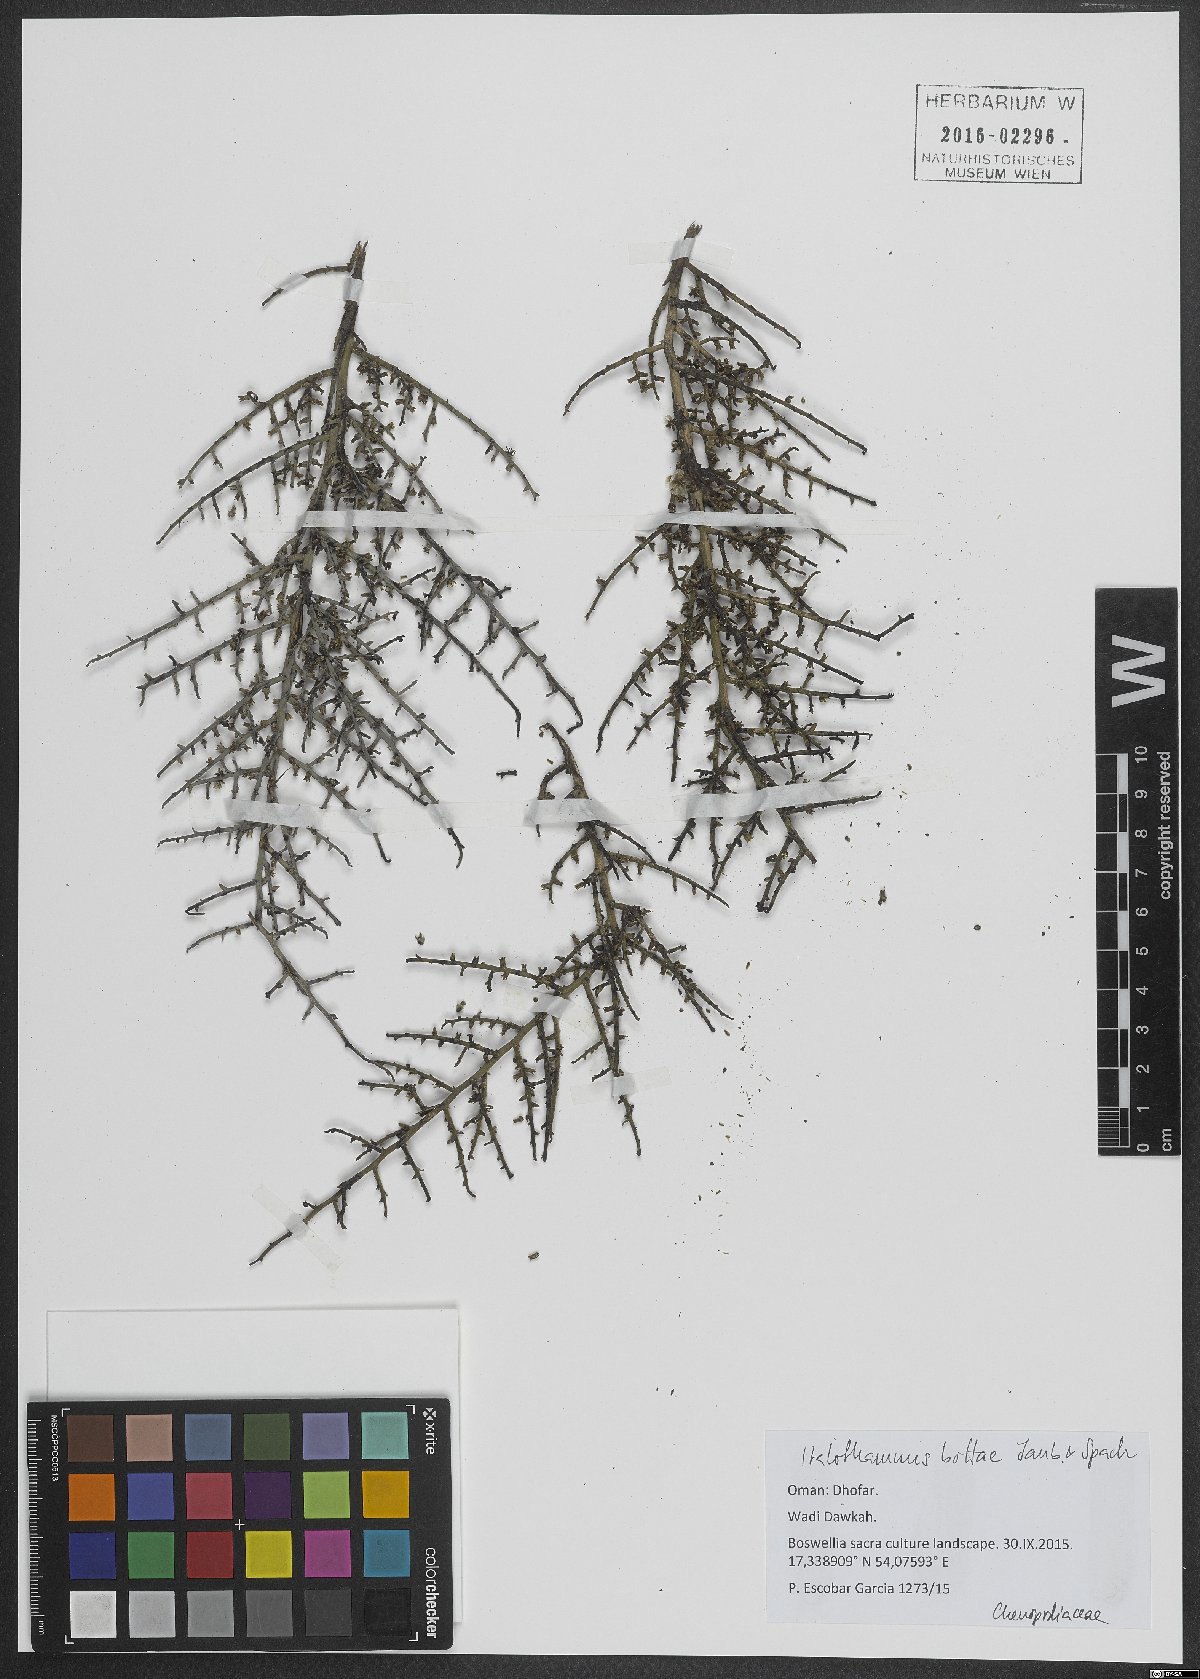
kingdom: Plantae
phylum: Tracheophyta
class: Magnoliopsida
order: Caryophyllales
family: Amaranthaceae
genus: Halothamnus
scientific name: Halothamnus bottae
